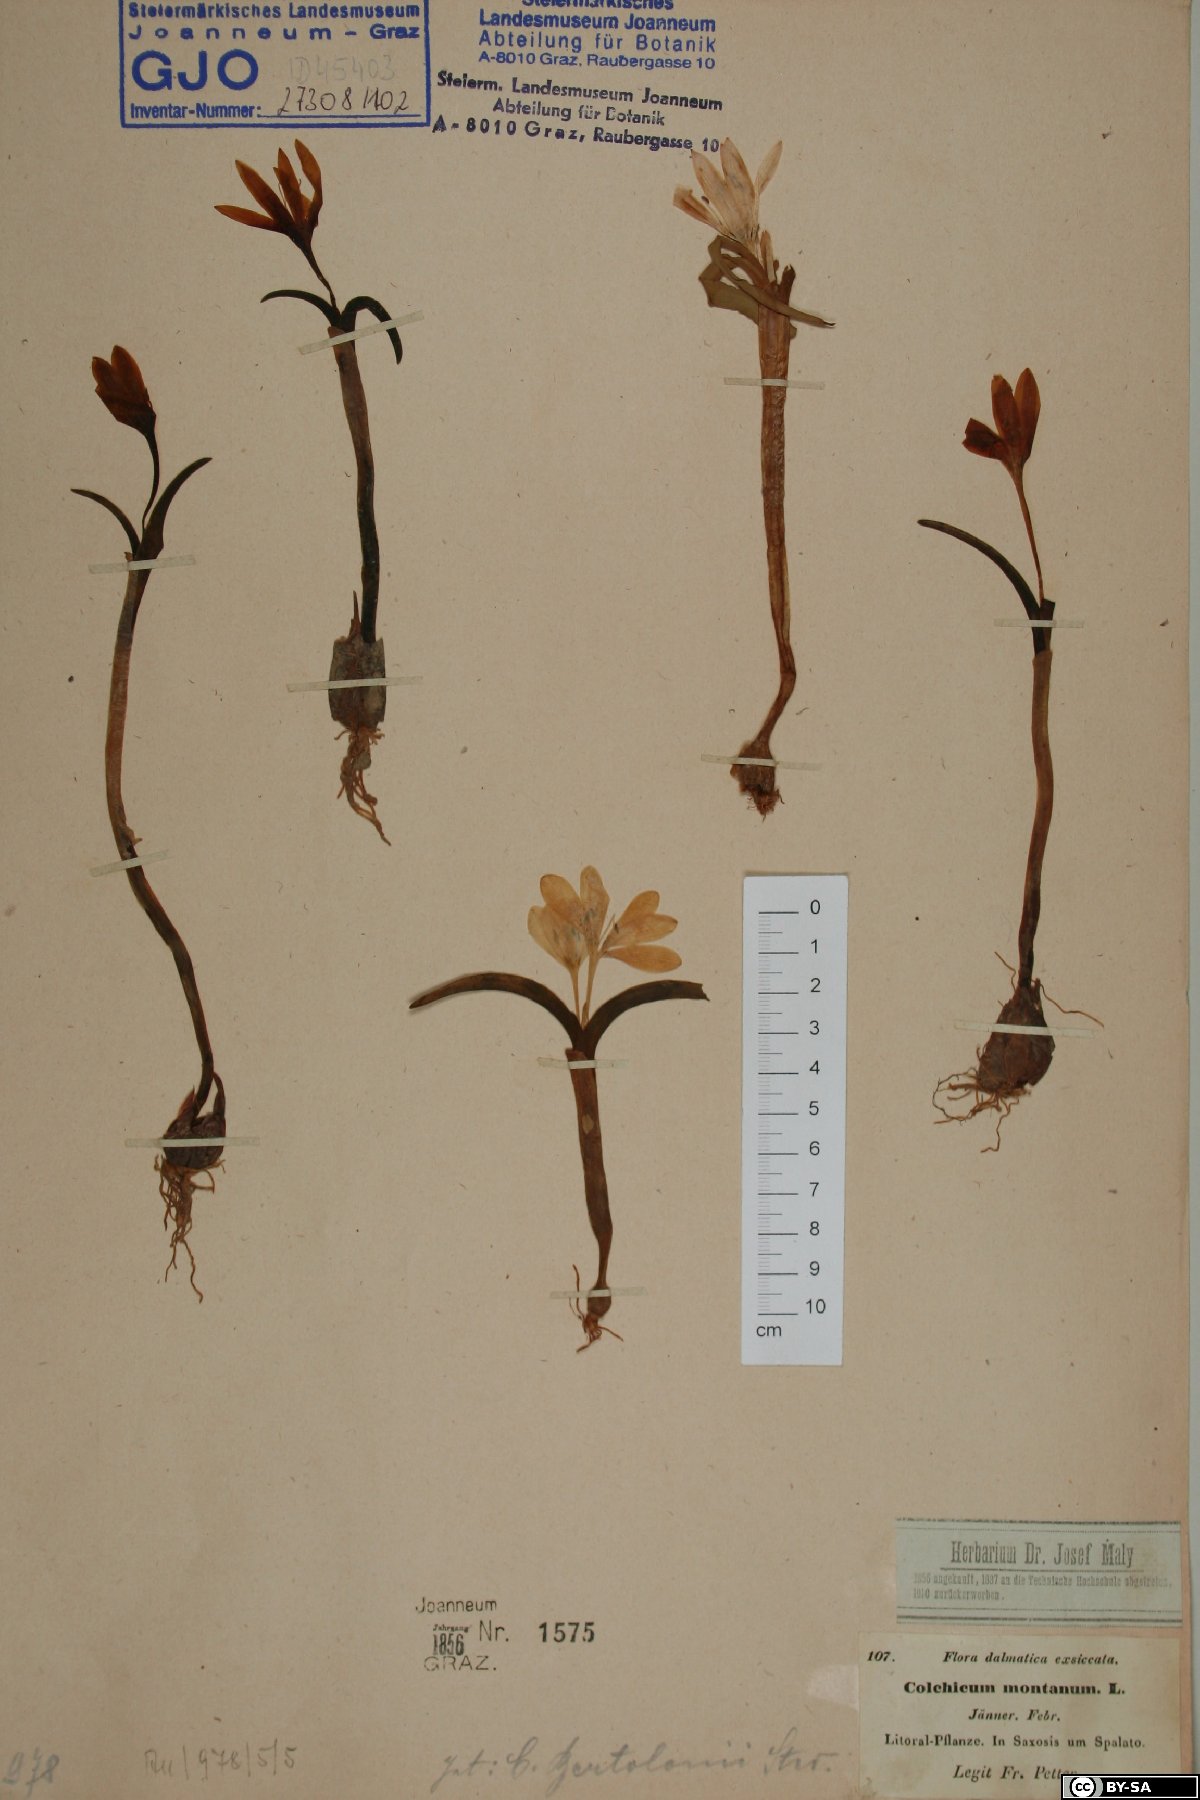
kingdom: Plantae
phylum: Tracheophyta
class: Liliopsida
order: Liliales
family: Colchicaceae
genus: Colchicum
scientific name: Colchicum montanum
